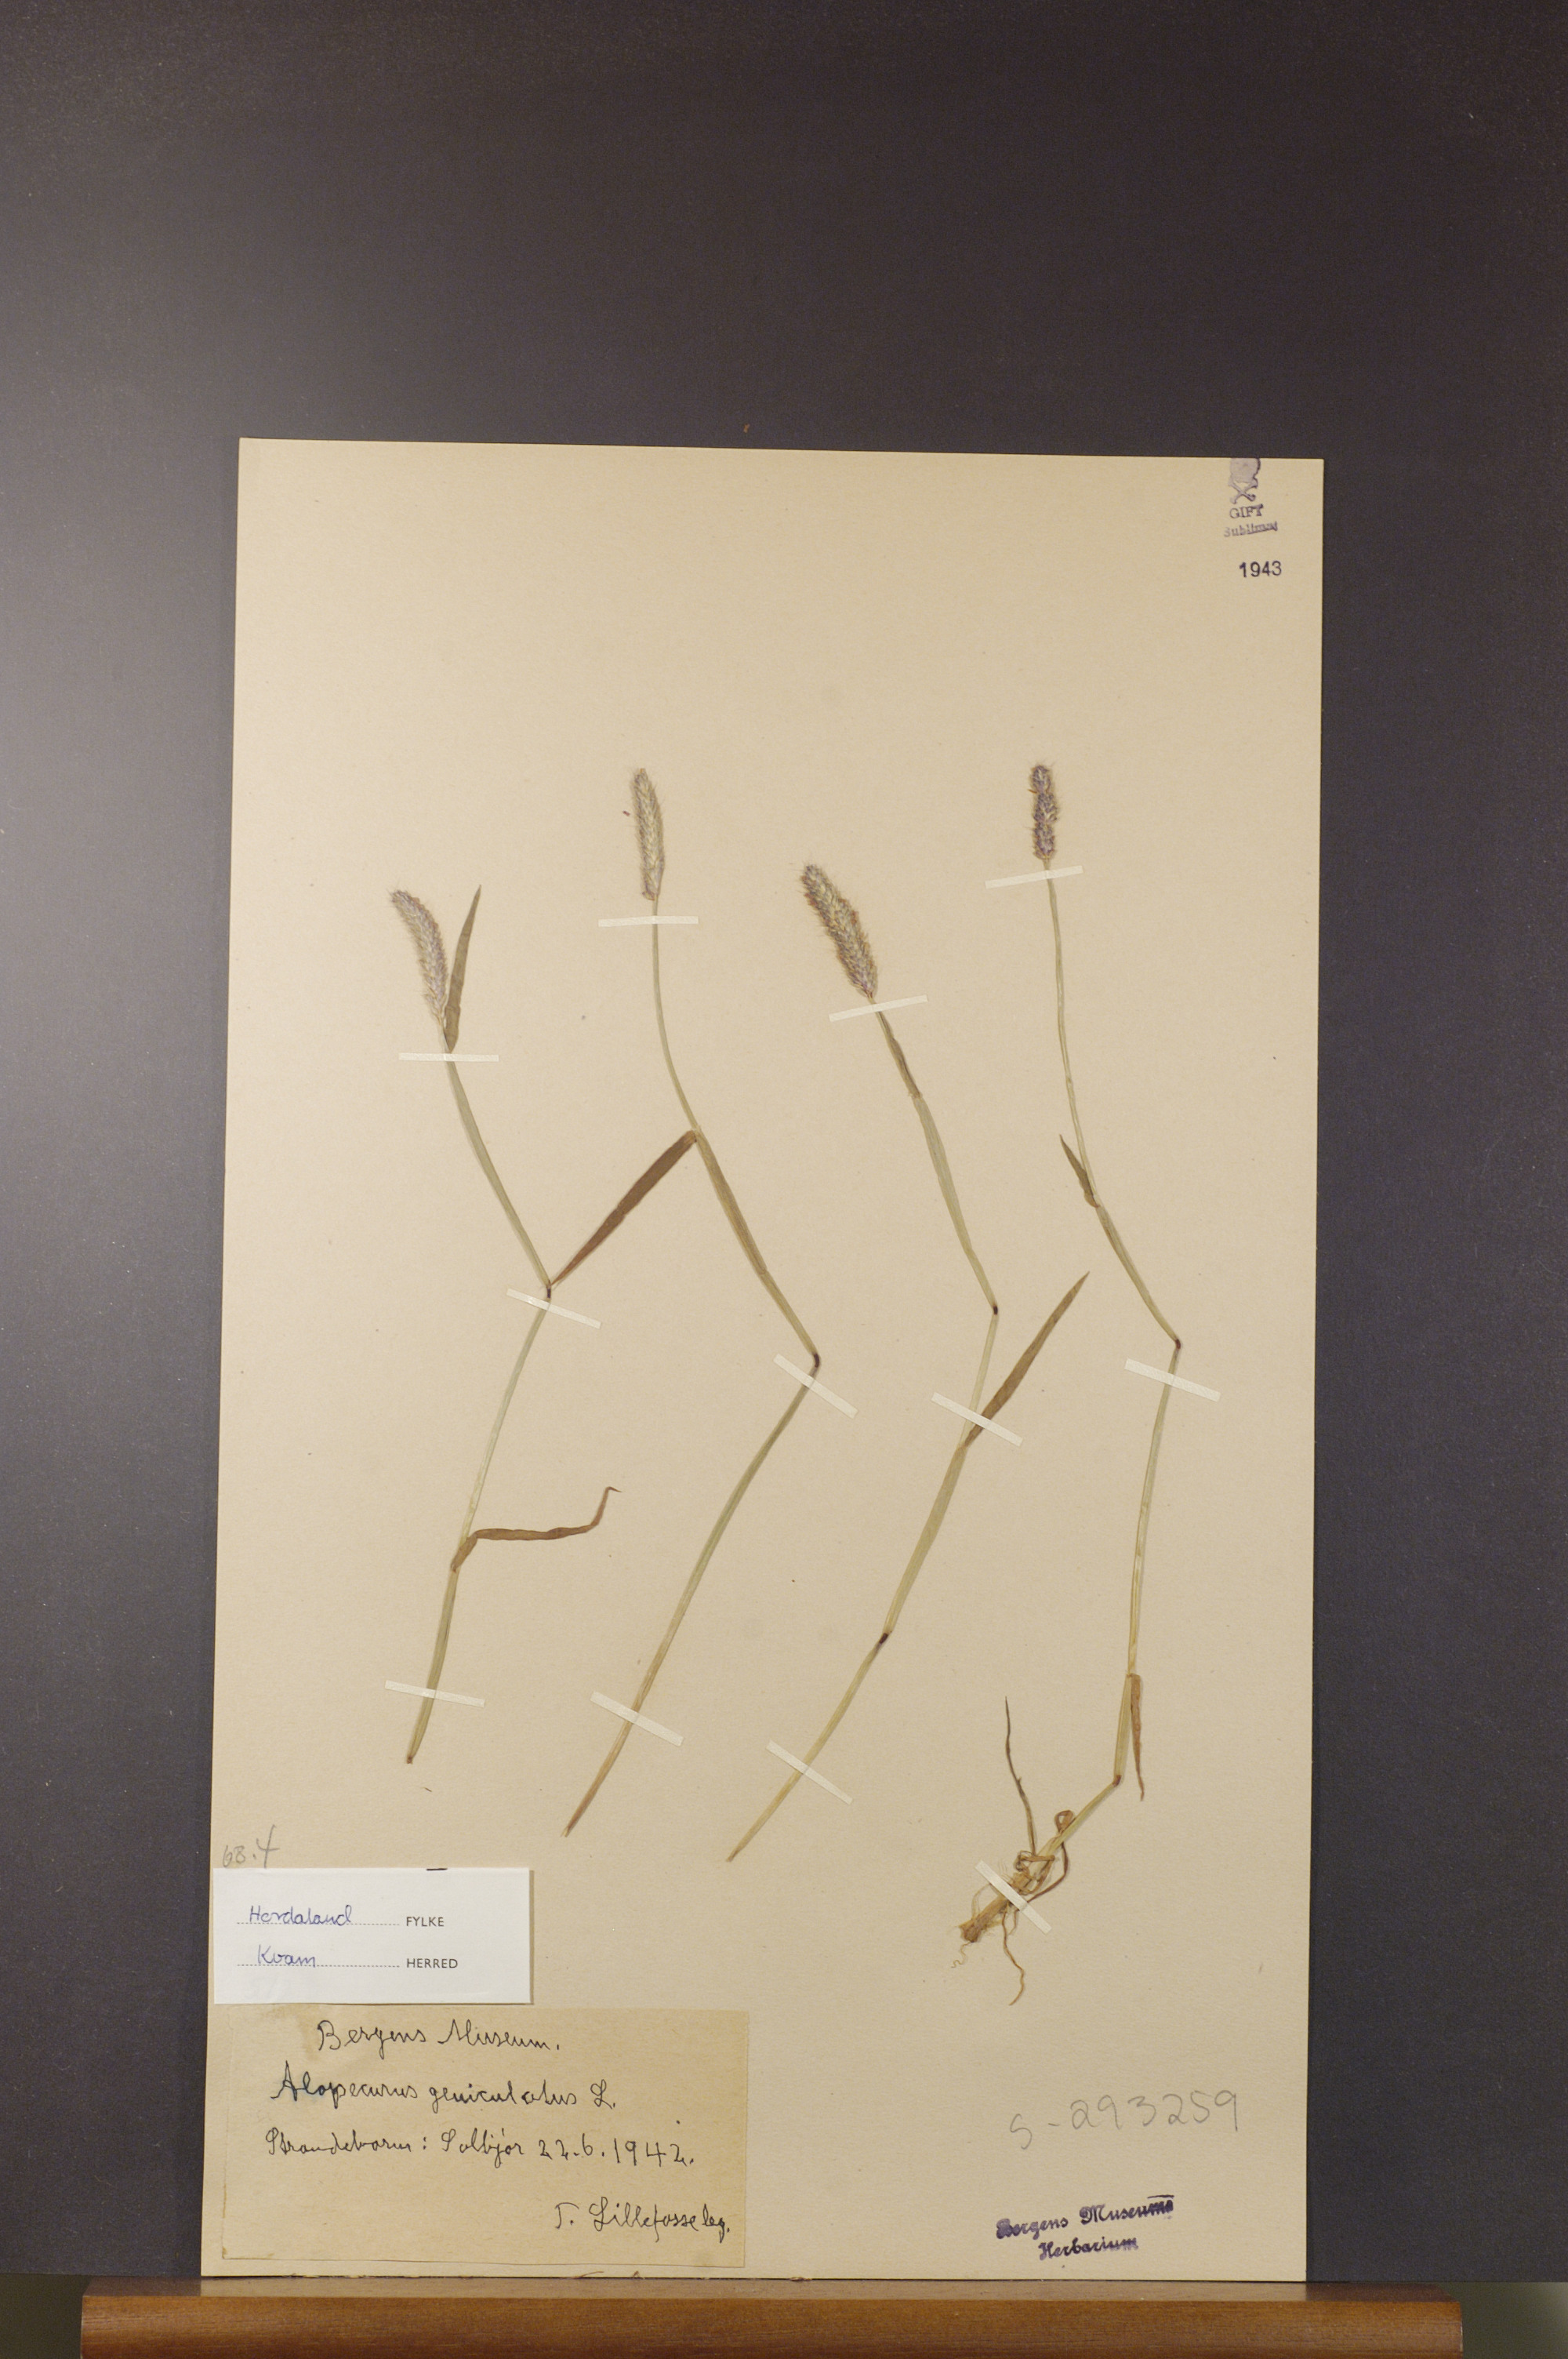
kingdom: Plantae
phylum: Tracheophyta
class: Liliopsida
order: Poales
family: Poaceae
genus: Alopecurus
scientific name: Alopecurus geniculatus
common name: Water foxtail
